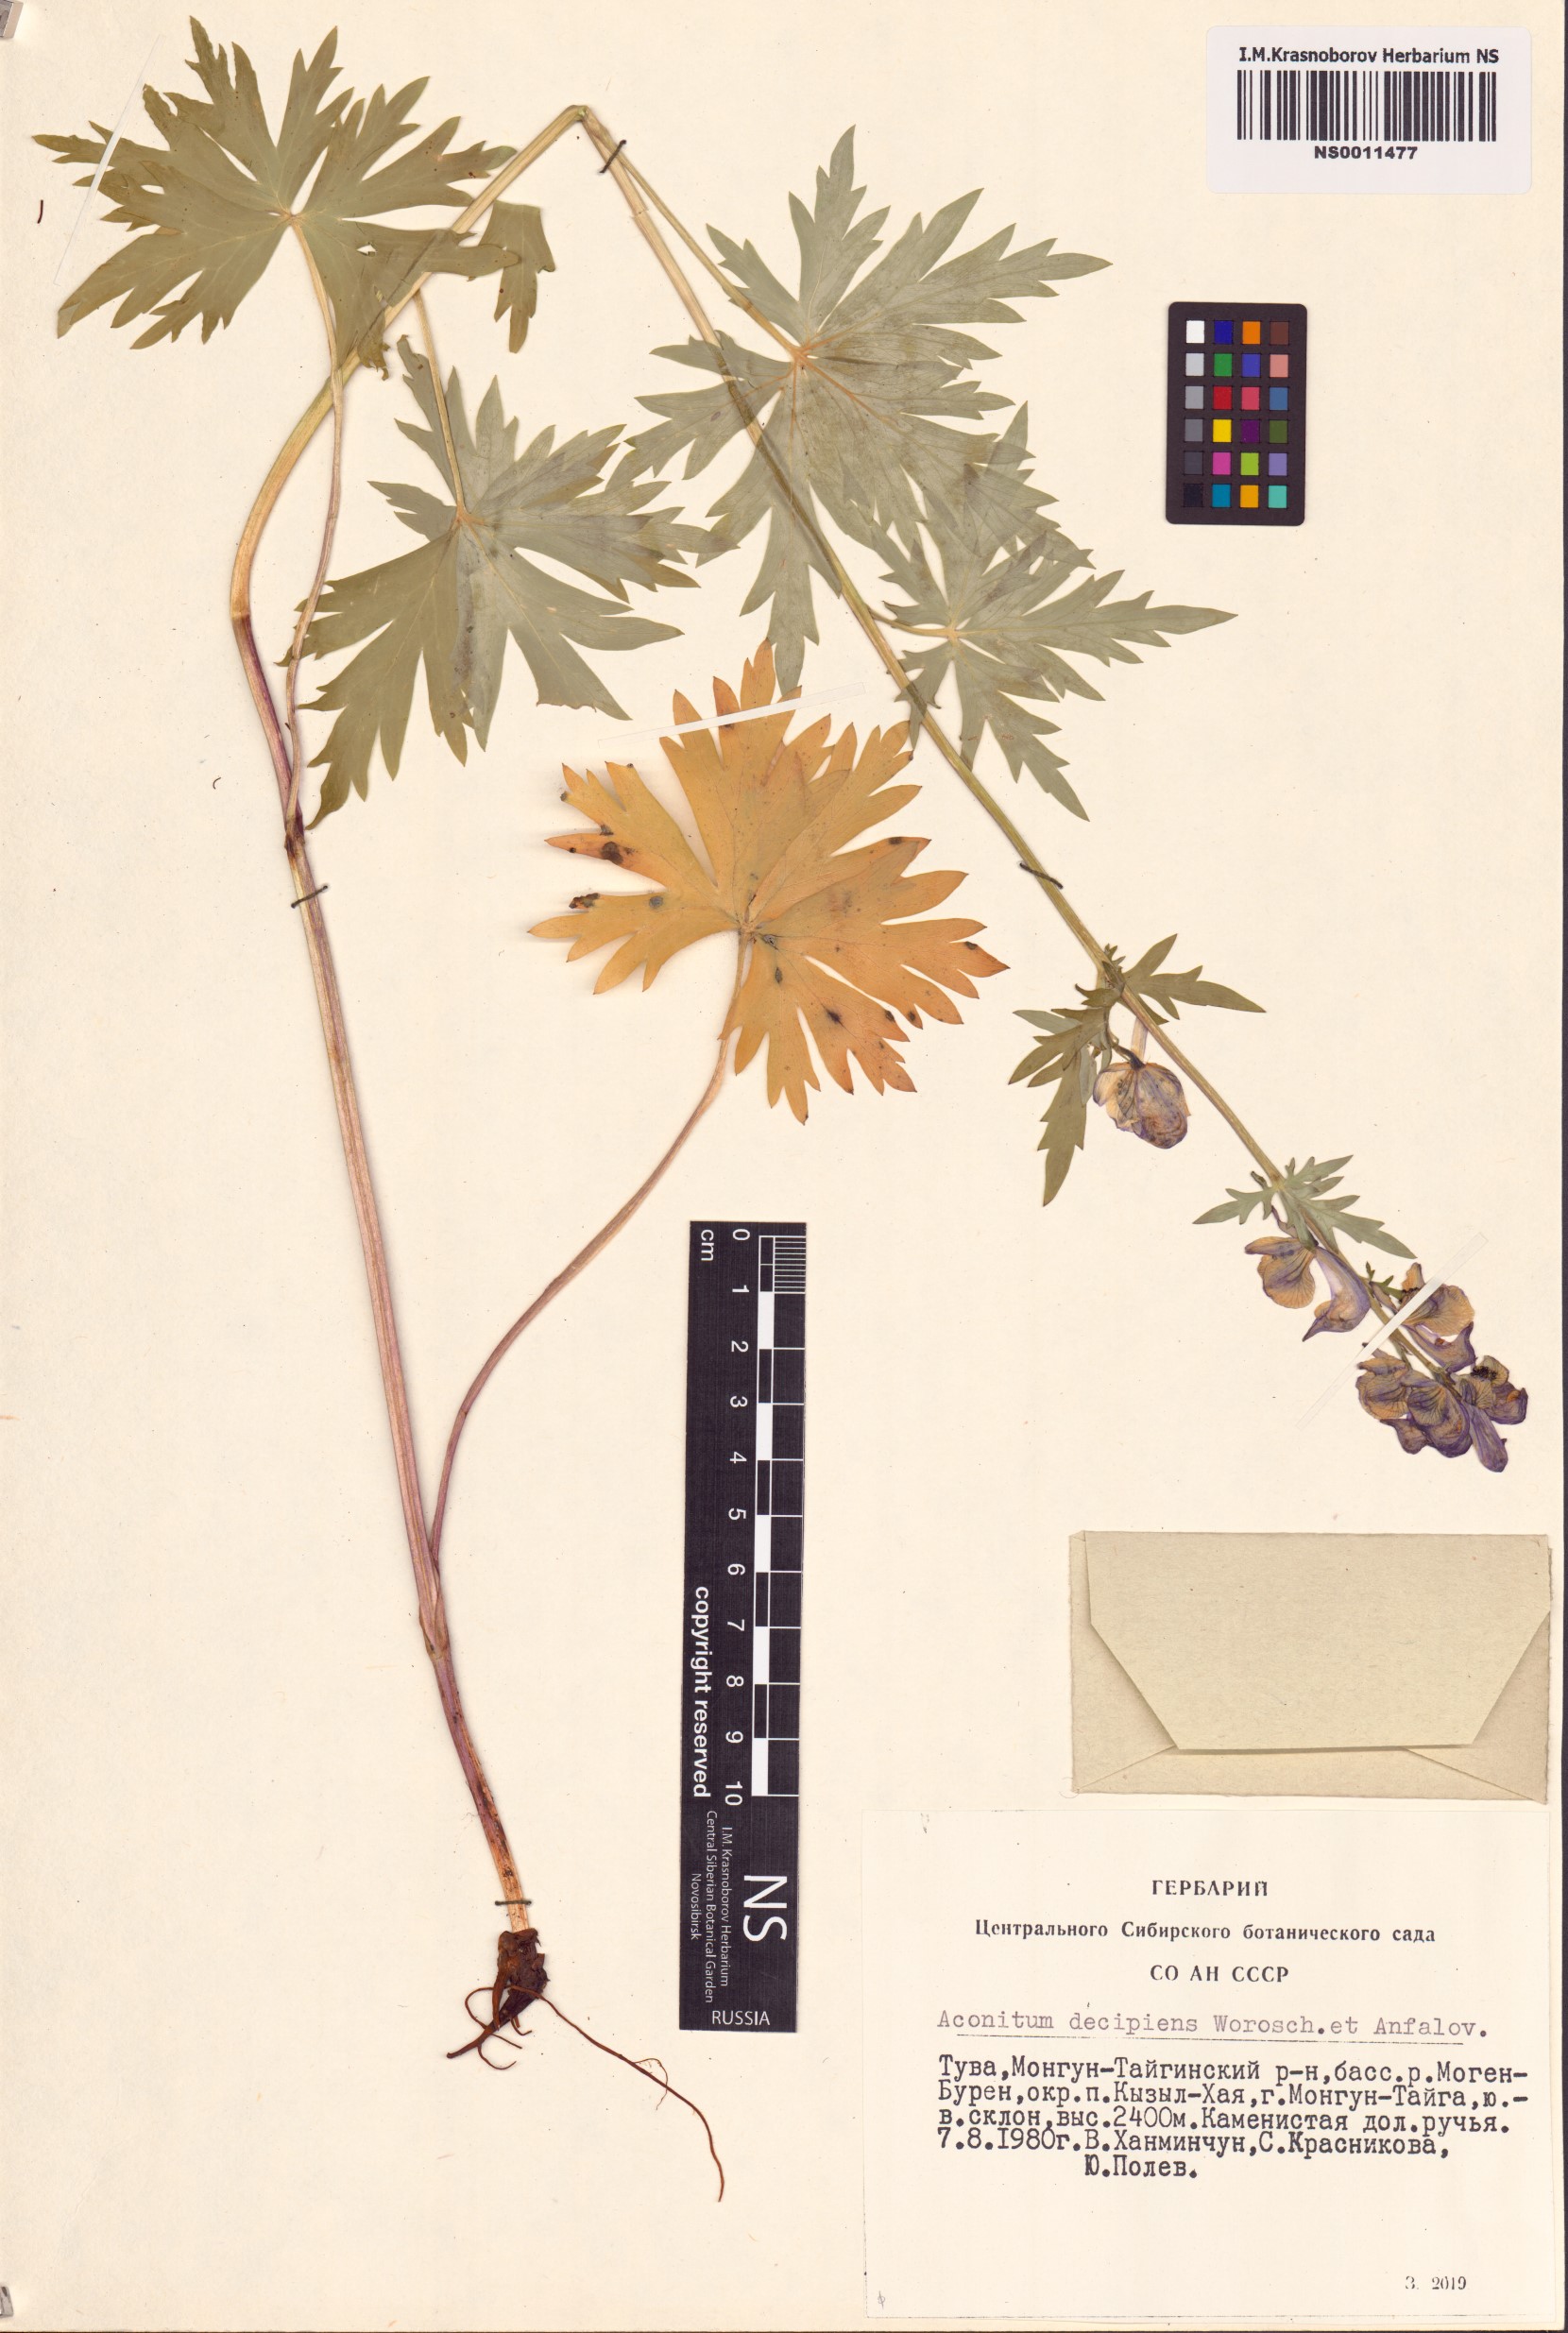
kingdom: Plantae
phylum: Tracheophyta
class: Magnoliopsida
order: Ranunculales
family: Ranunculaceae
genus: Aconitum
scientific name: Aconitum decipiens
